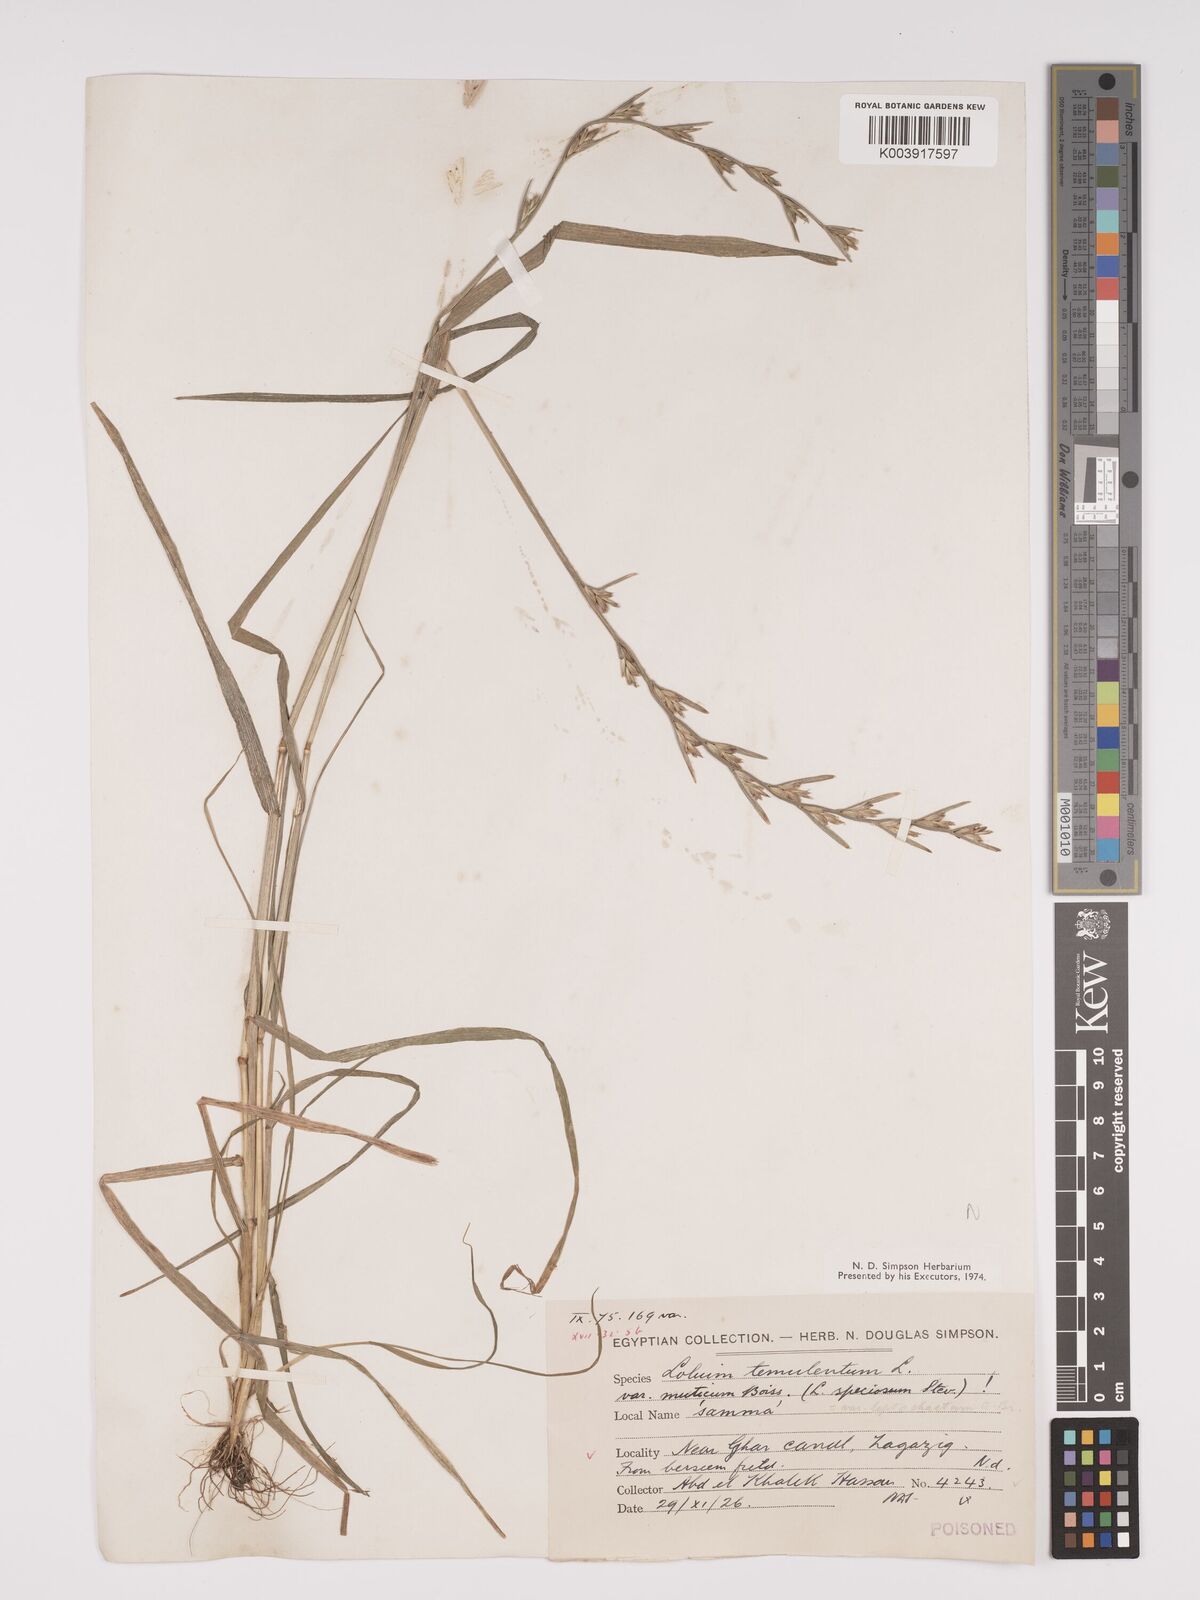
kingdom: Plantae
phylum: Tracheophyta
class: Liliopsida
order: Poales
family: Poaceae
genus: Lolium
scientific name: Lolium temulentum
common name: Darnel
